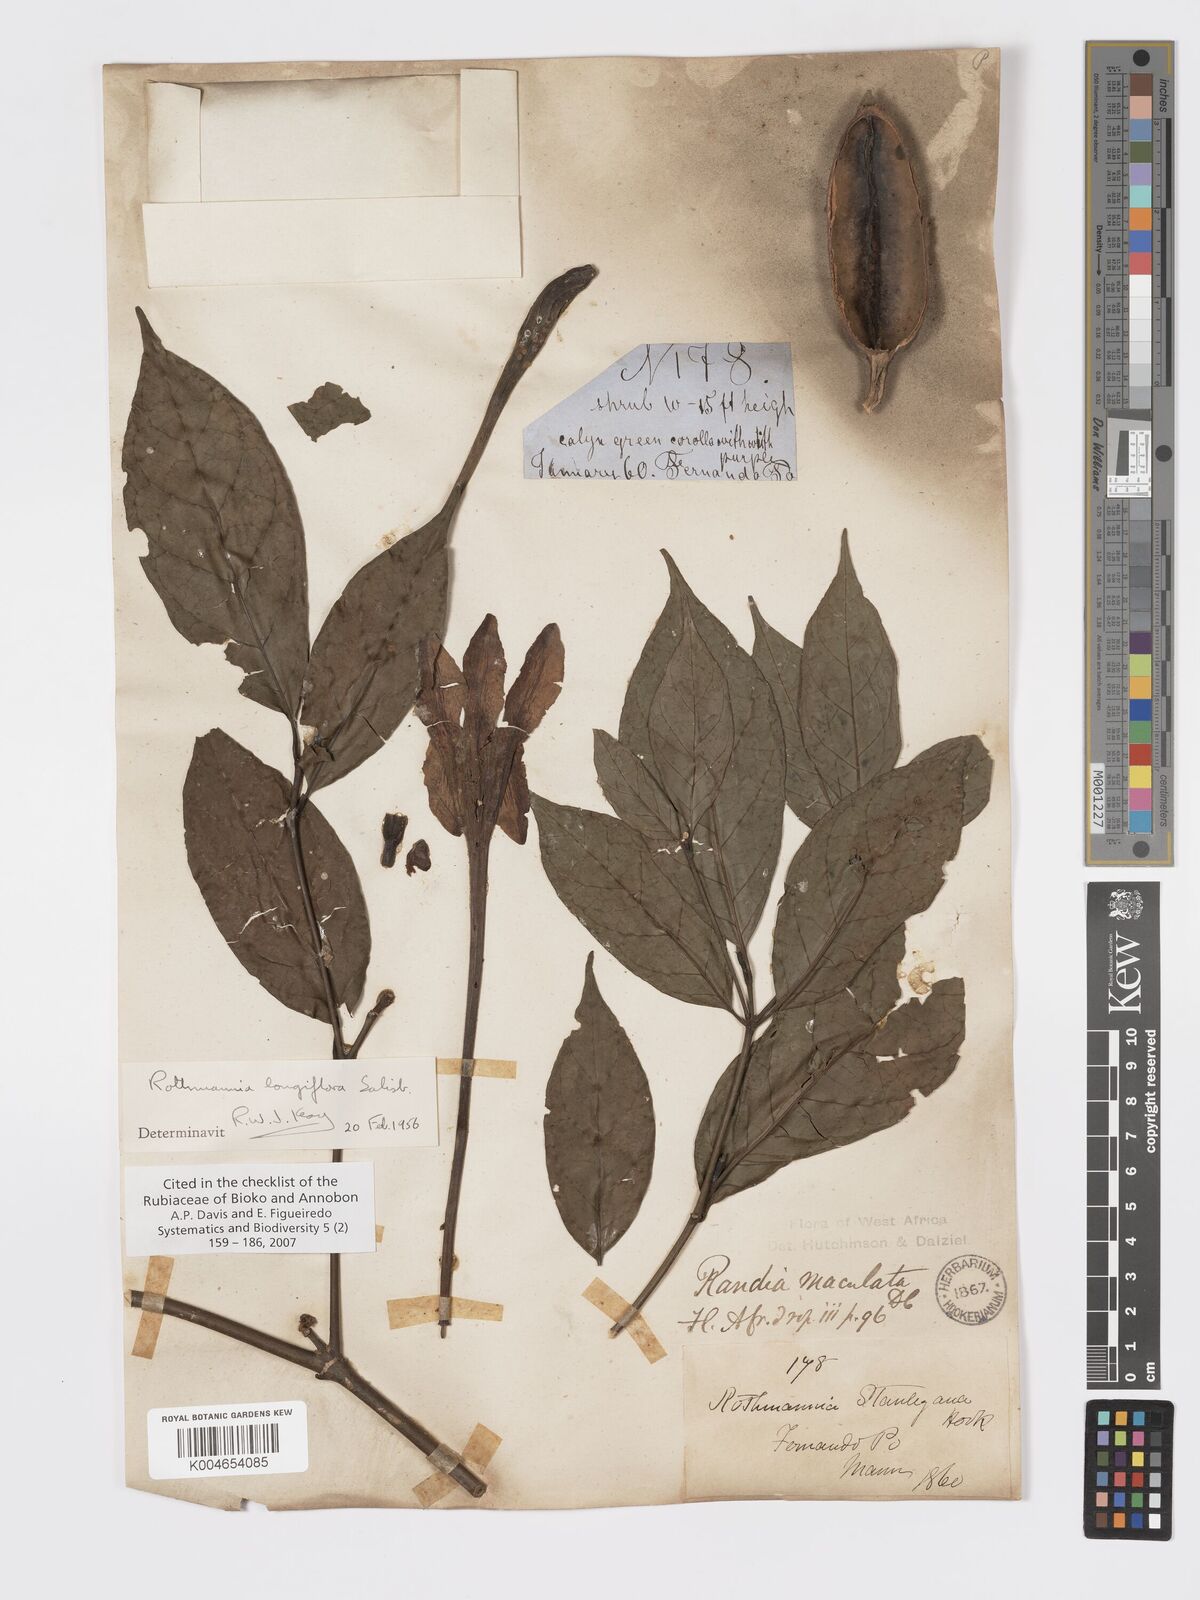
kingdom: Plantae
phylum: Tracheophyta
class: Magnoliopsida
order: Gentianales
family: Rubiaceae
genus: Rothmannia
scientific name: Rothmannia longiflora
